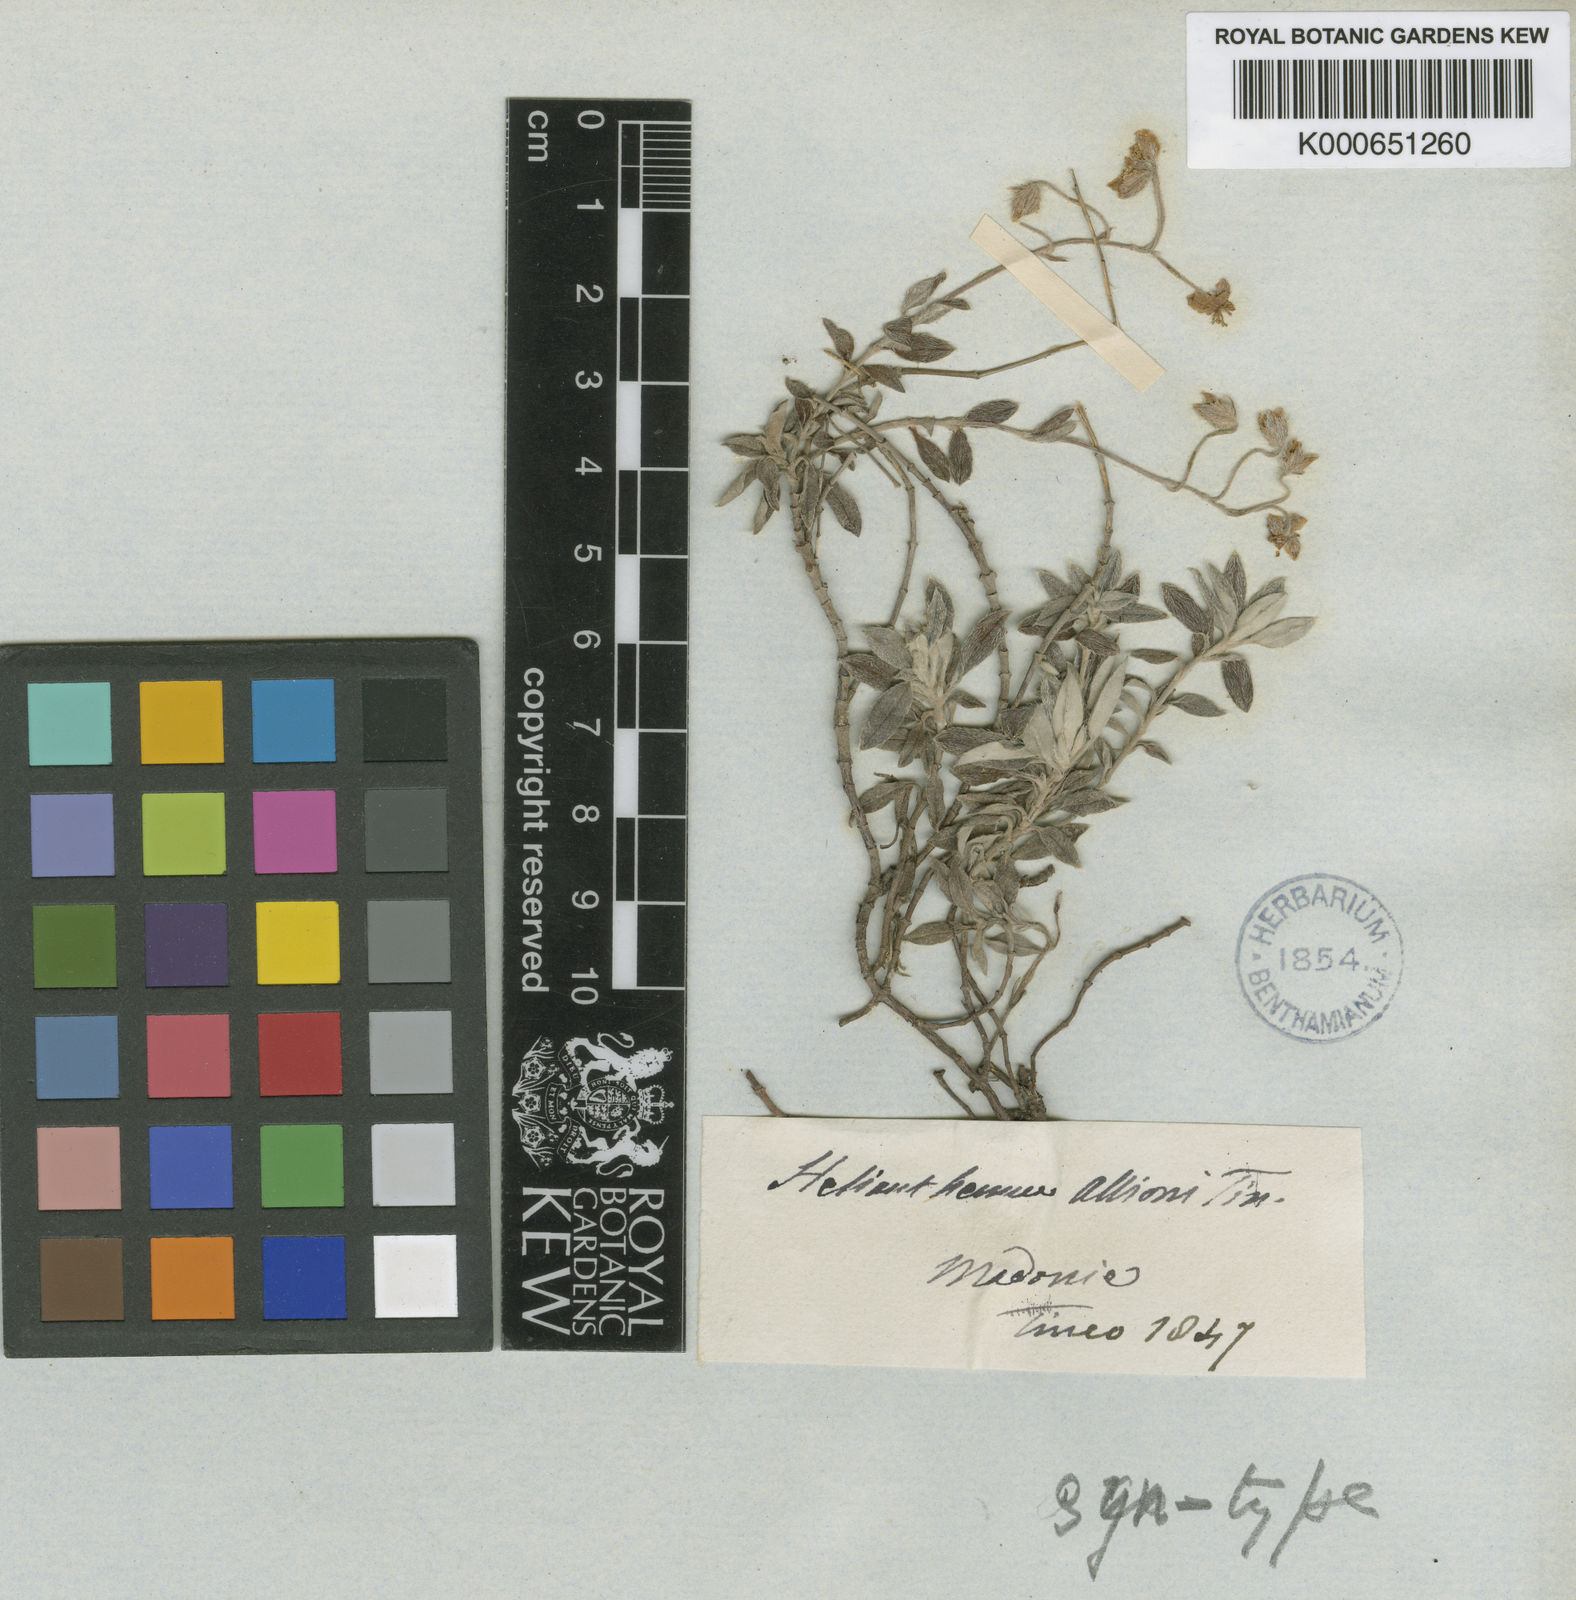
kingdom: Plantae
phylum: Tracheophyta
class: Magnoliopsida
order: Malvales
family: Cistaceae
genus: Helianthemum
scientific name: Helianthemum
